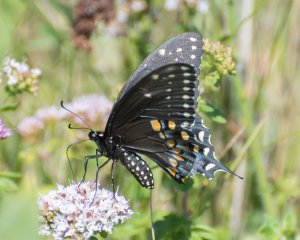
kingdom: Animalia
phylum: Arthropoda
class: Insecta
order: Lepidoptera
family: Papilionidae
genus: Papilio
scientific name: Papilio polyxenes
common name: Black Swallowtail
